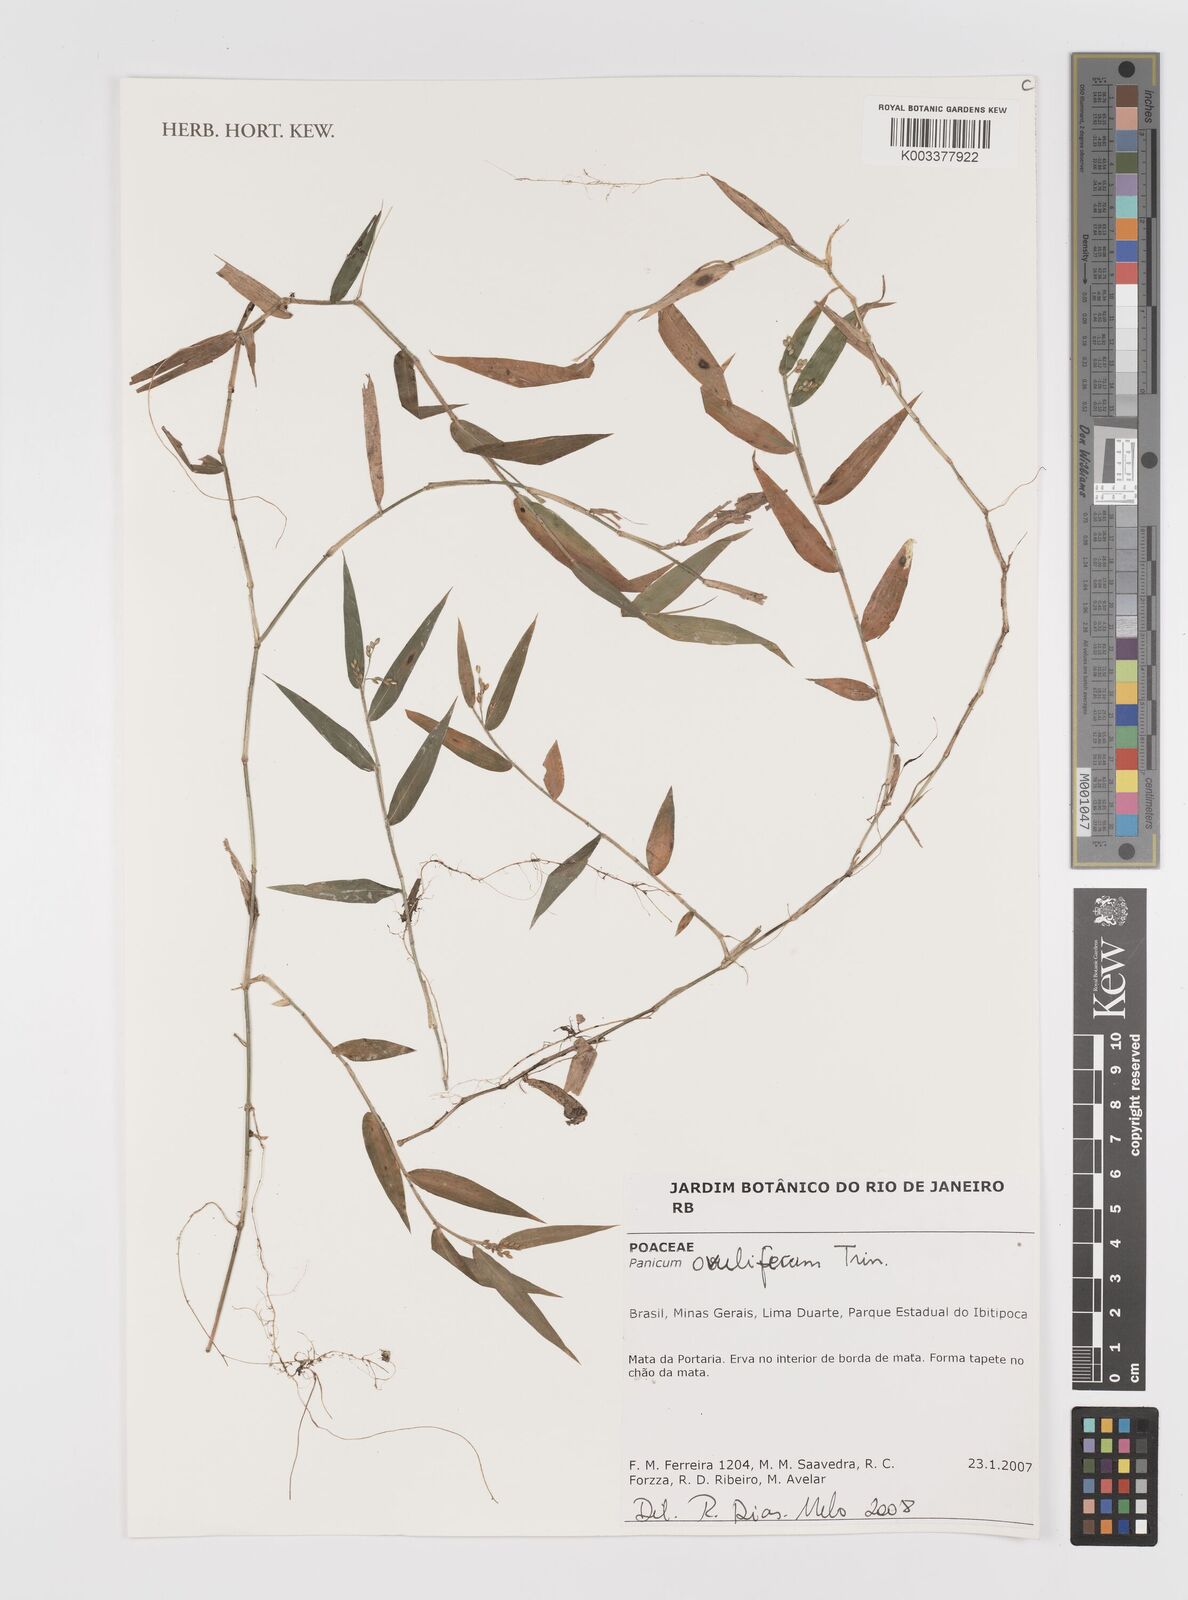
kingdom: Plantae
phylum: Tracheophyta
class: Liliopsida
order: Poales
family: Poaceae
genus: Parodiophyllochloa
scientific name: Parodiophyllochloa ovulifera
